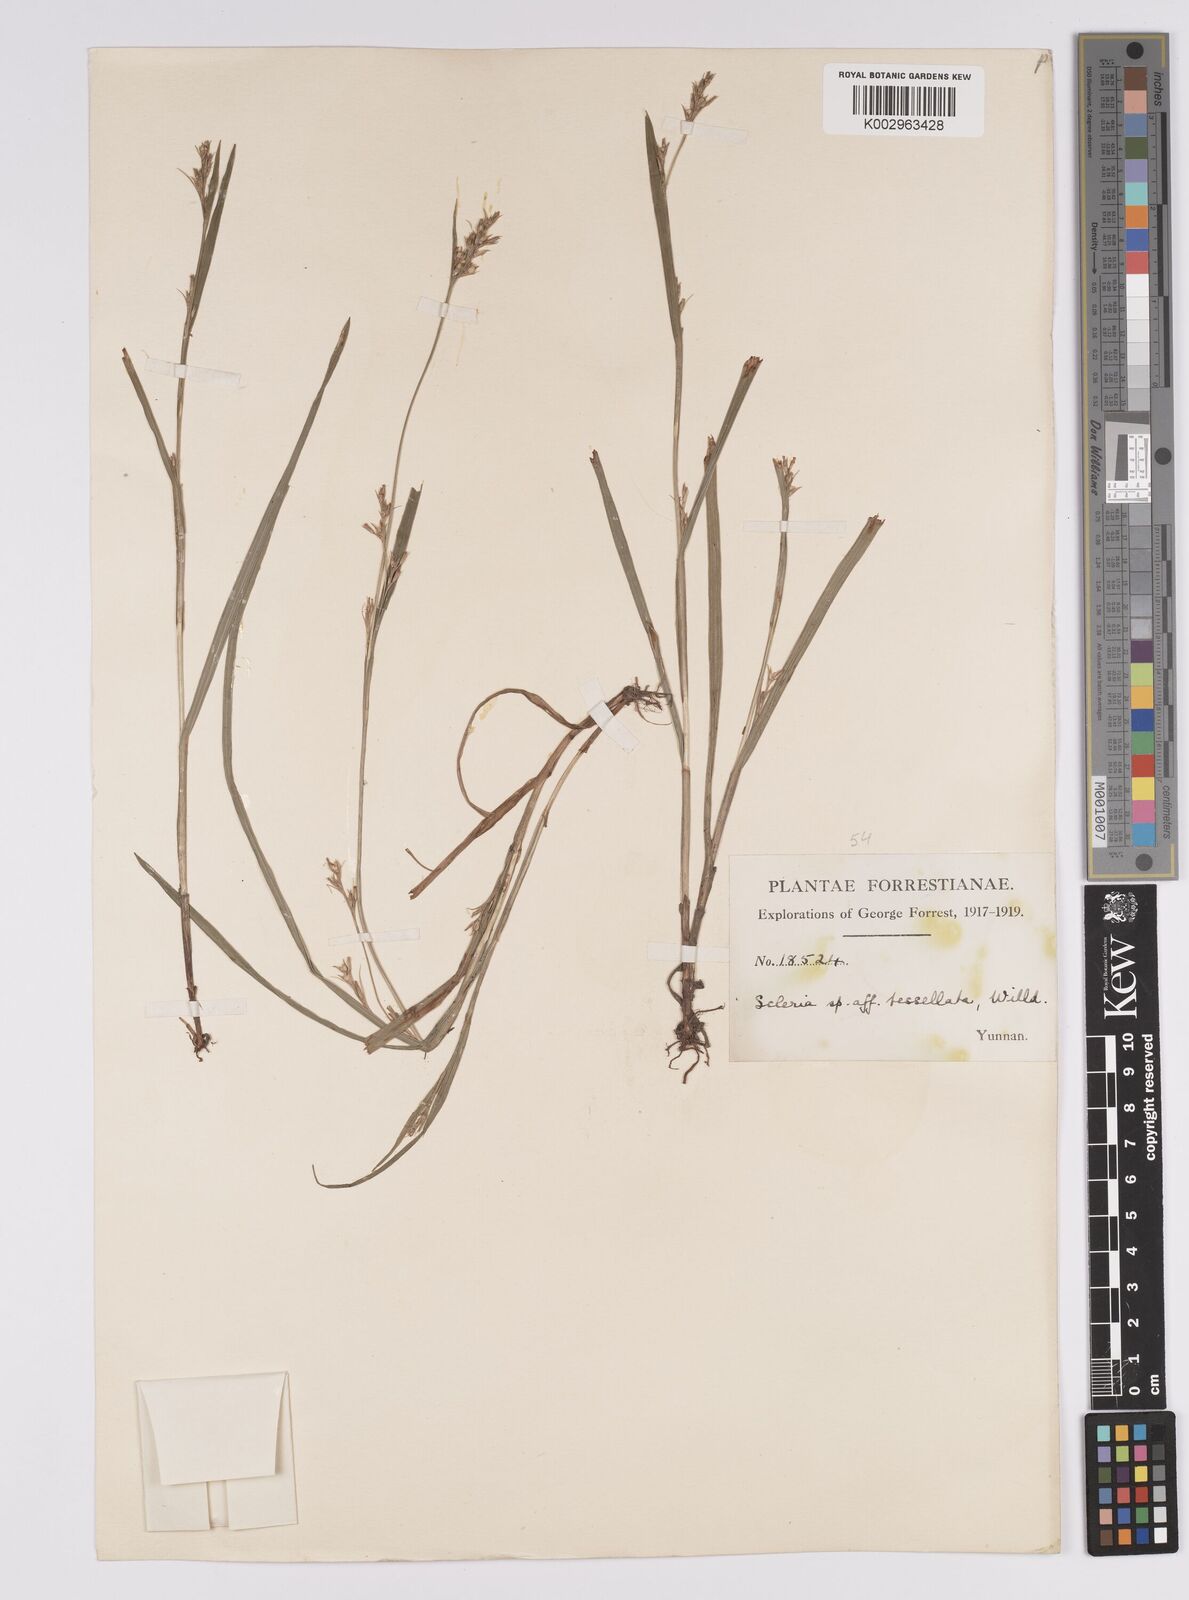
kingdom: Plantae
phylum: Tracheophyta
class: Liliopsida
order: Poales
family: Cyperaceae
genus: Scleria
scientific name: Scleria tessellata
